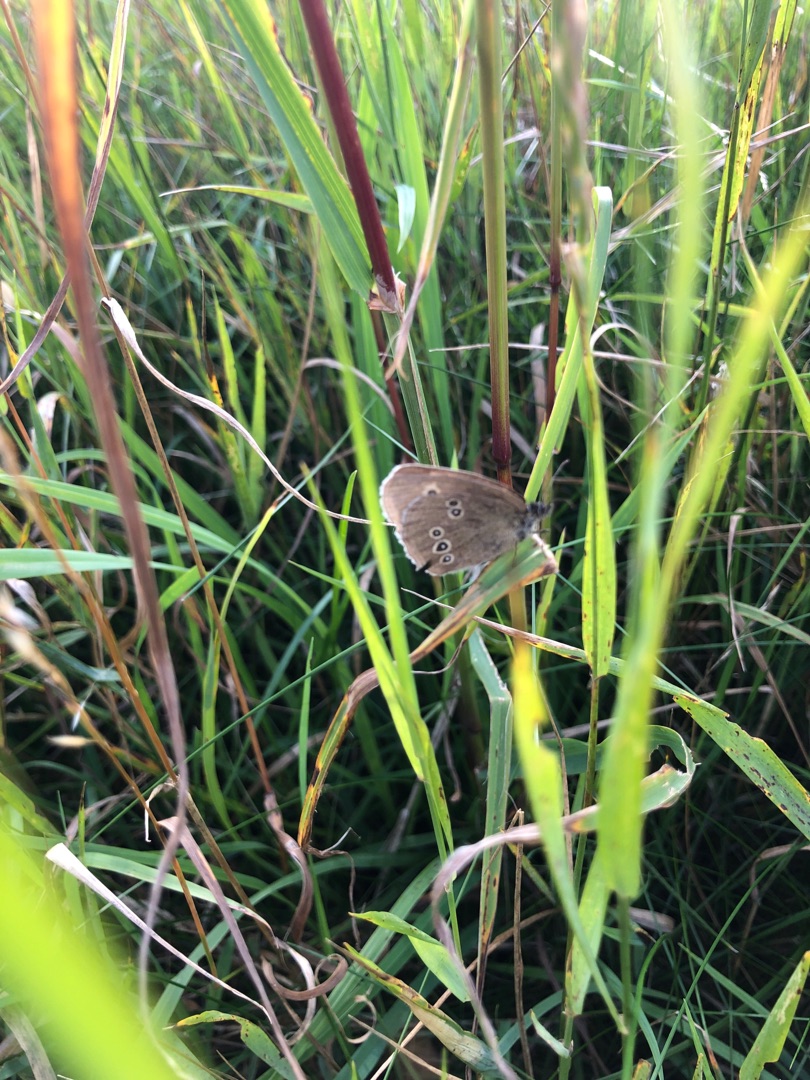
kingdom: Animalia
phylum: Arthropoda
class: Insecta
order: Lepidoptera
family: Nymphalidae
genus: Aphantopus
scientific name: Aphantopus hyperantus
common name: Engrandøje
